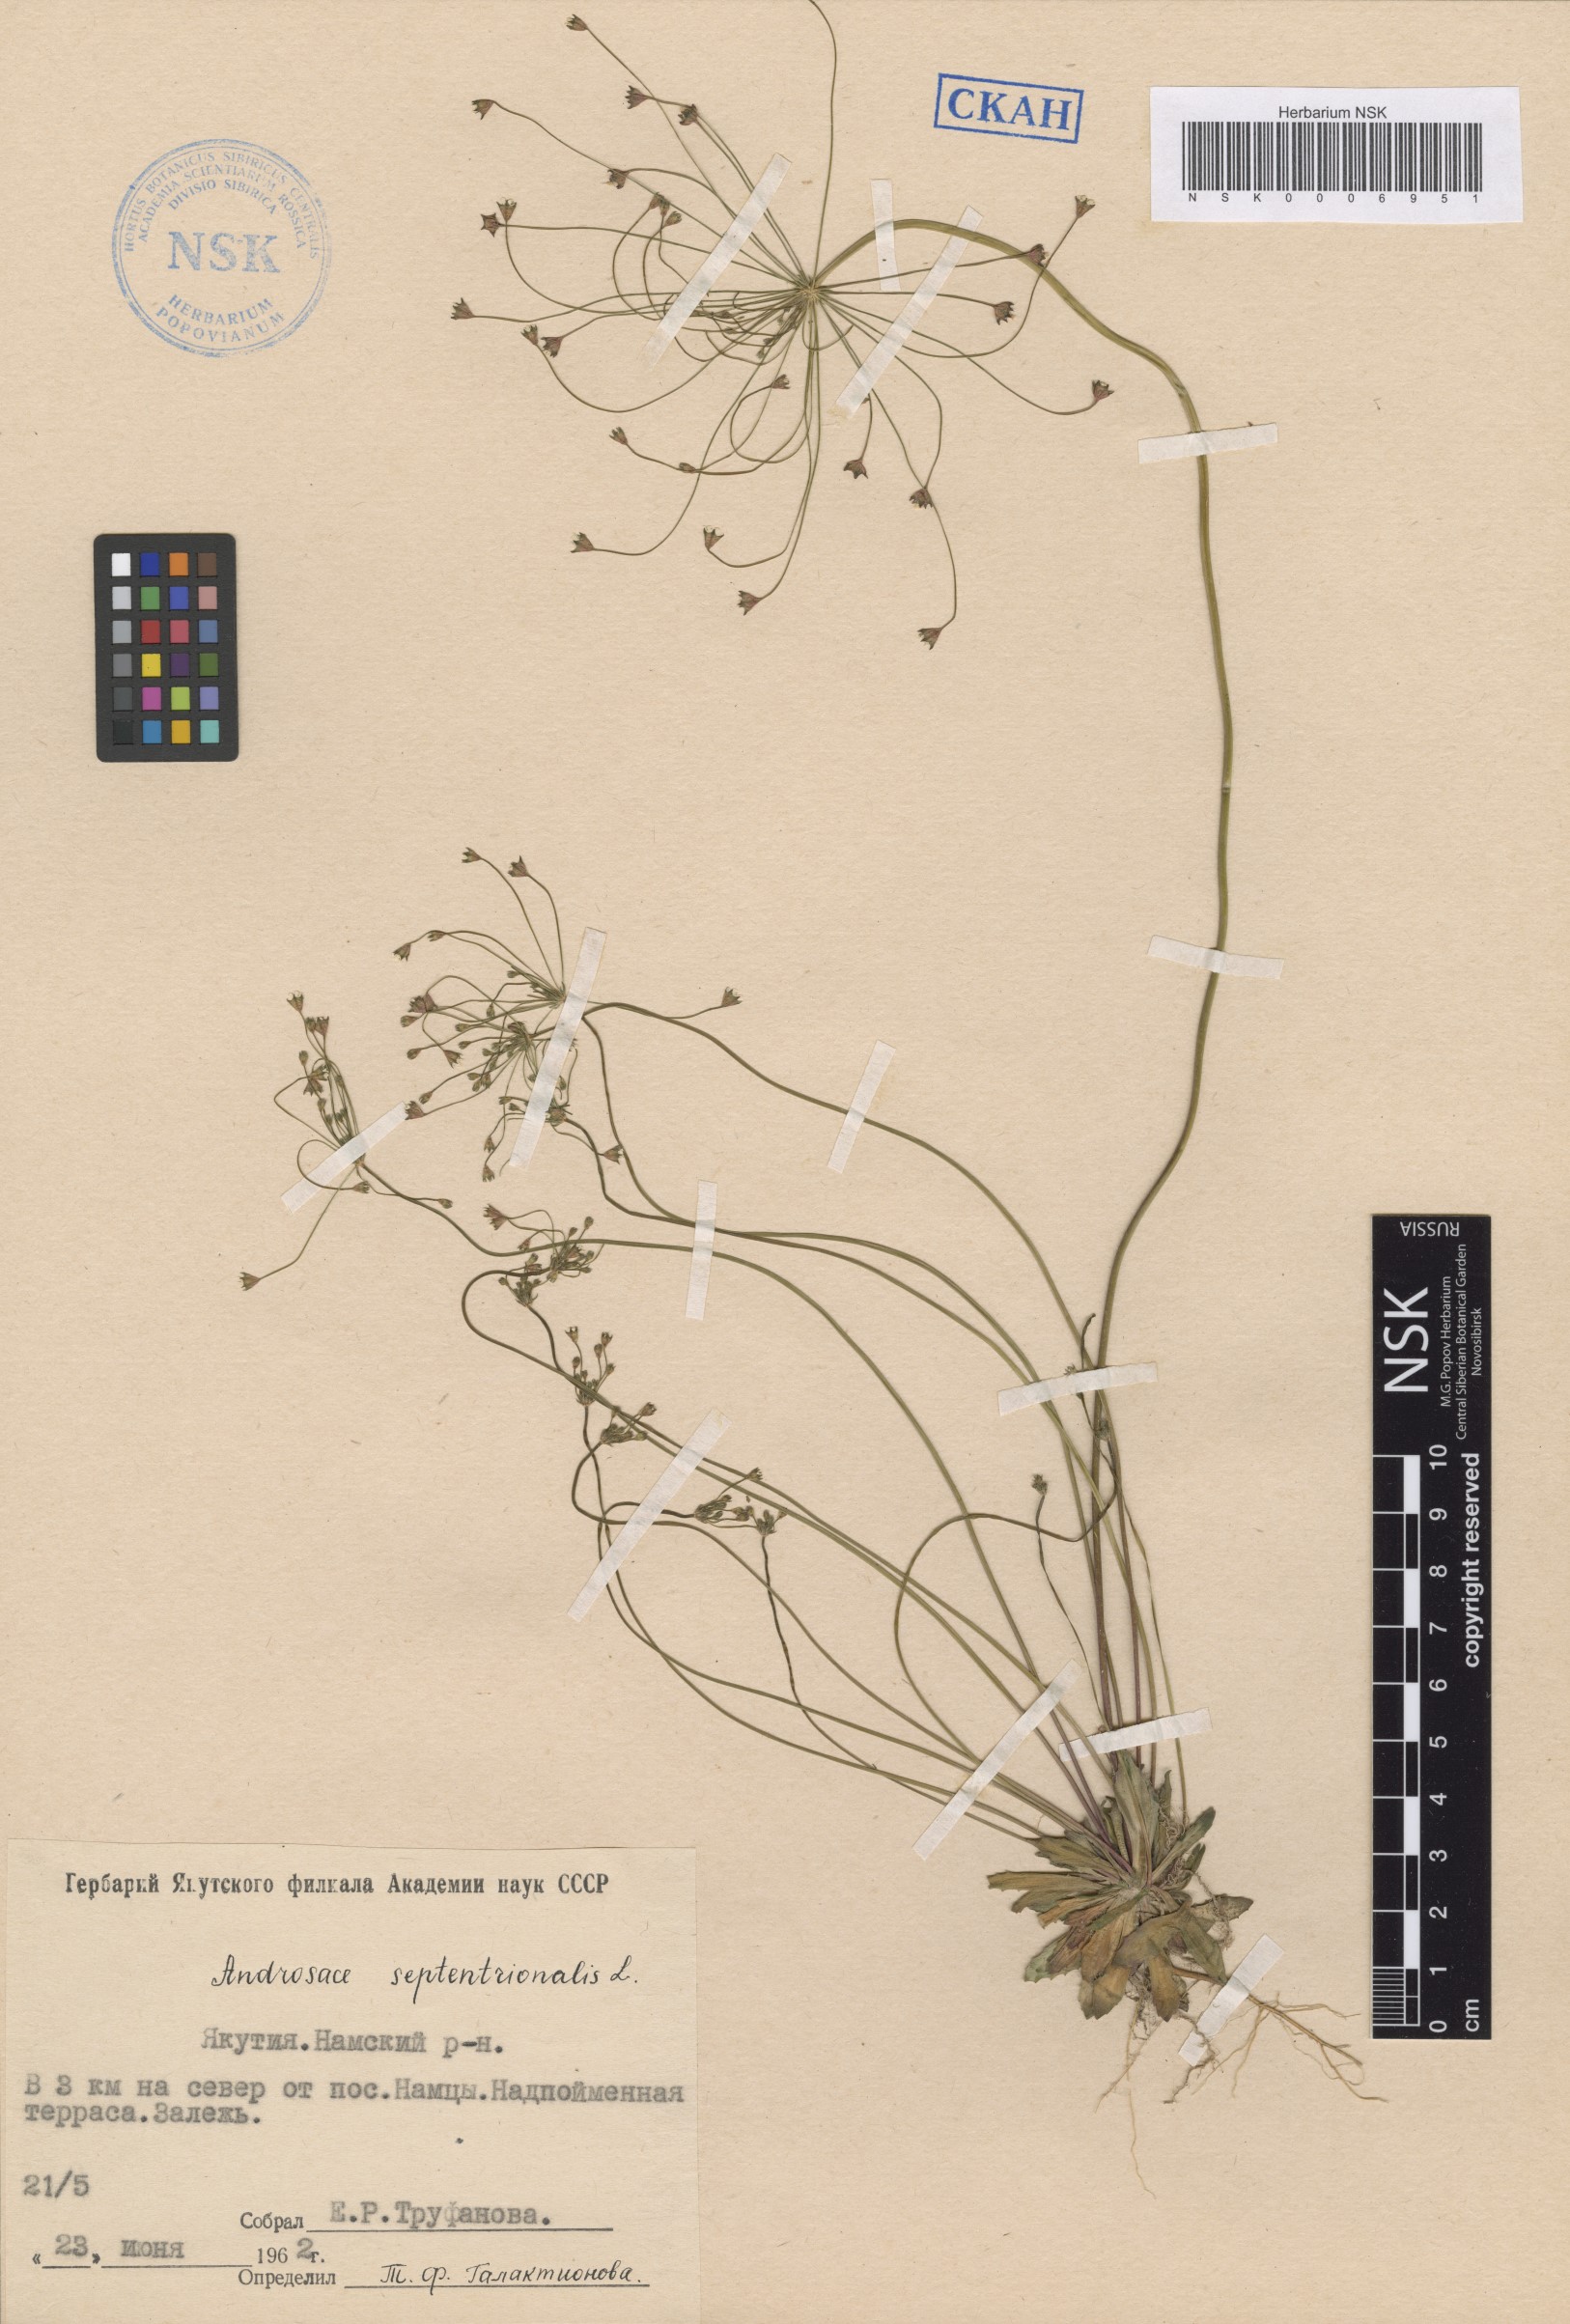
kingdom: Plantae
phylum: Tracheophyta
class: Magnoliopsida
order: Ericales
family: Primulaceae
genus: Androsace
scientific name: Androsace septentrionalis
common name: Hairy northern fairy-candelabra
